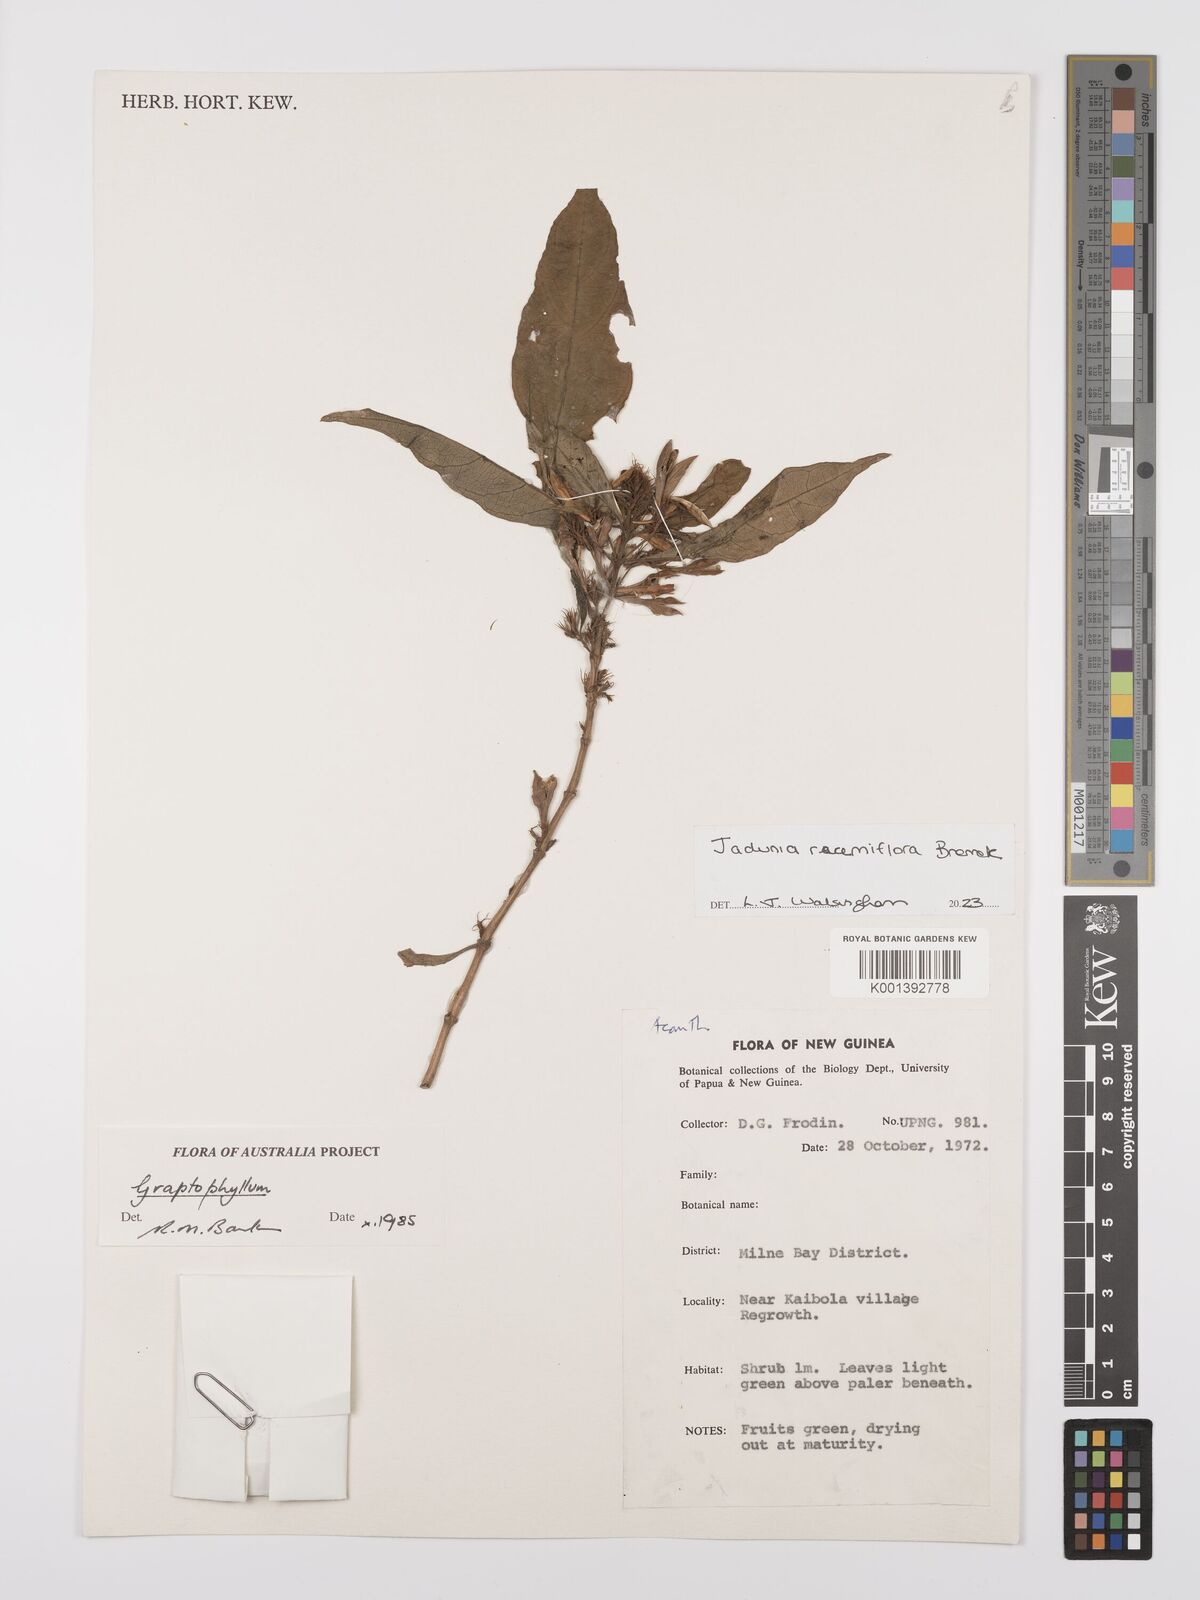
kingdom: Plantae
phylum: Tracheophyta
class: Magnoliopsida
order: Lamiales
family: Acanthaceae
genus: Jadunia
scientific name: Jadunia racemiflora
